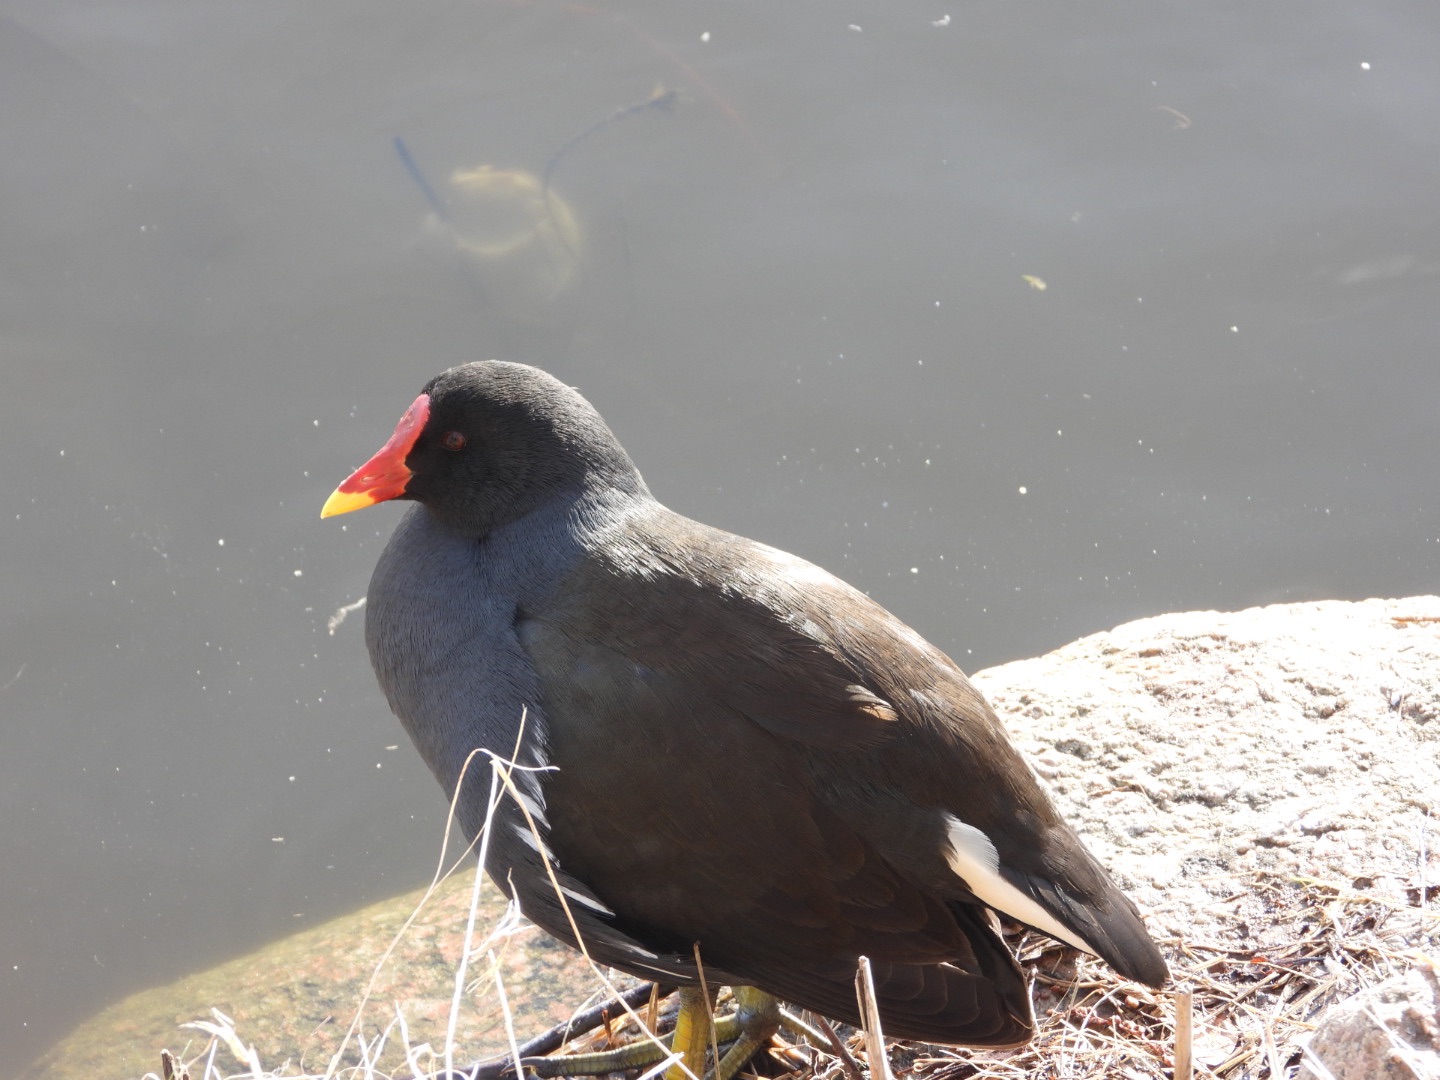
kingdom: Animalia
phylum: Chordata
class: Aves
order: Gruiformes
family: Rallidae
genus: Gallinula
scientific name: Gallinula chloropus
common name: Grønbenet rørhøne
